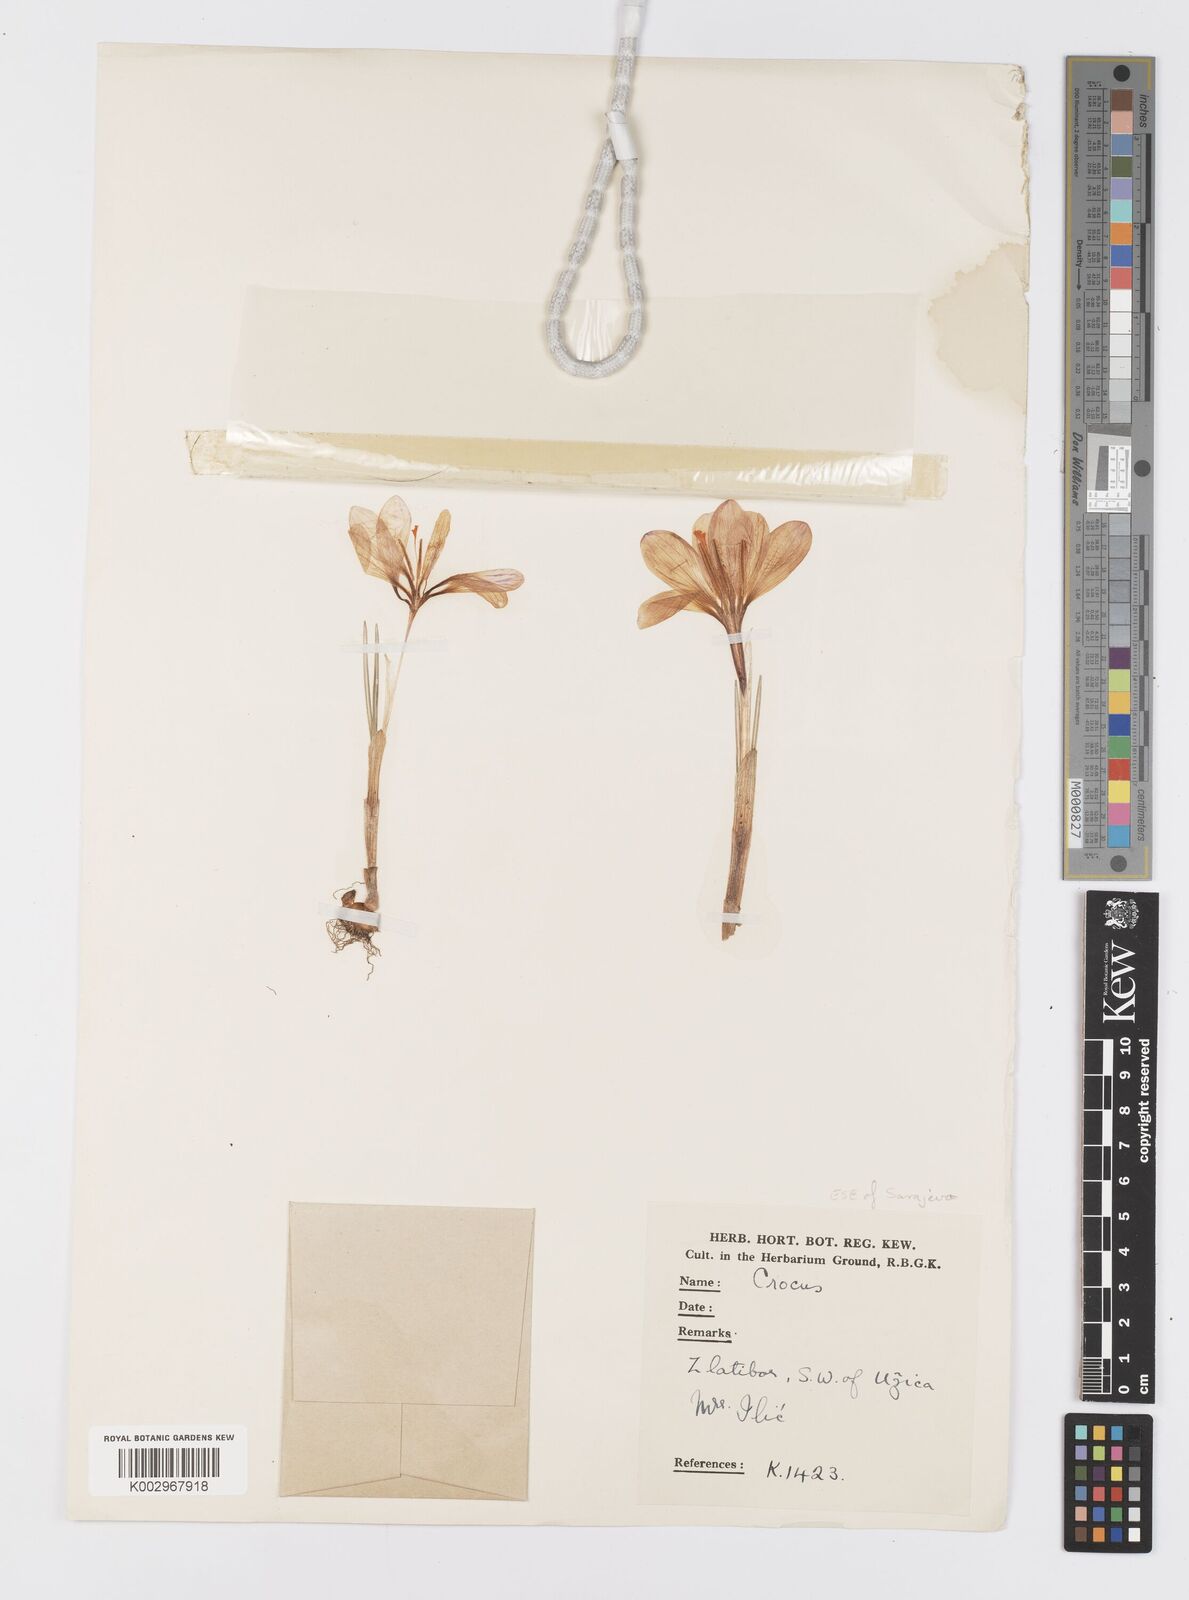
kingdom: Plantae
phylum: Tracheophyta
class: Liliopsida
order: Asparagales
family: Iridaceae
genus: Crocus
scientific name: Crocus
